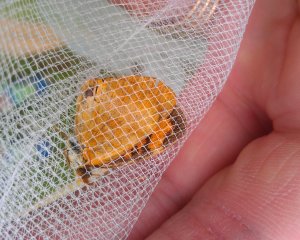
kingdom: Animalia
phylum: Arthropoda
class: Insecta
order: Lepidoptera
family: Nymphalidae
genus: Phyciodes
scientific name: Phyciodes tharos
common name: Northern Crescent
